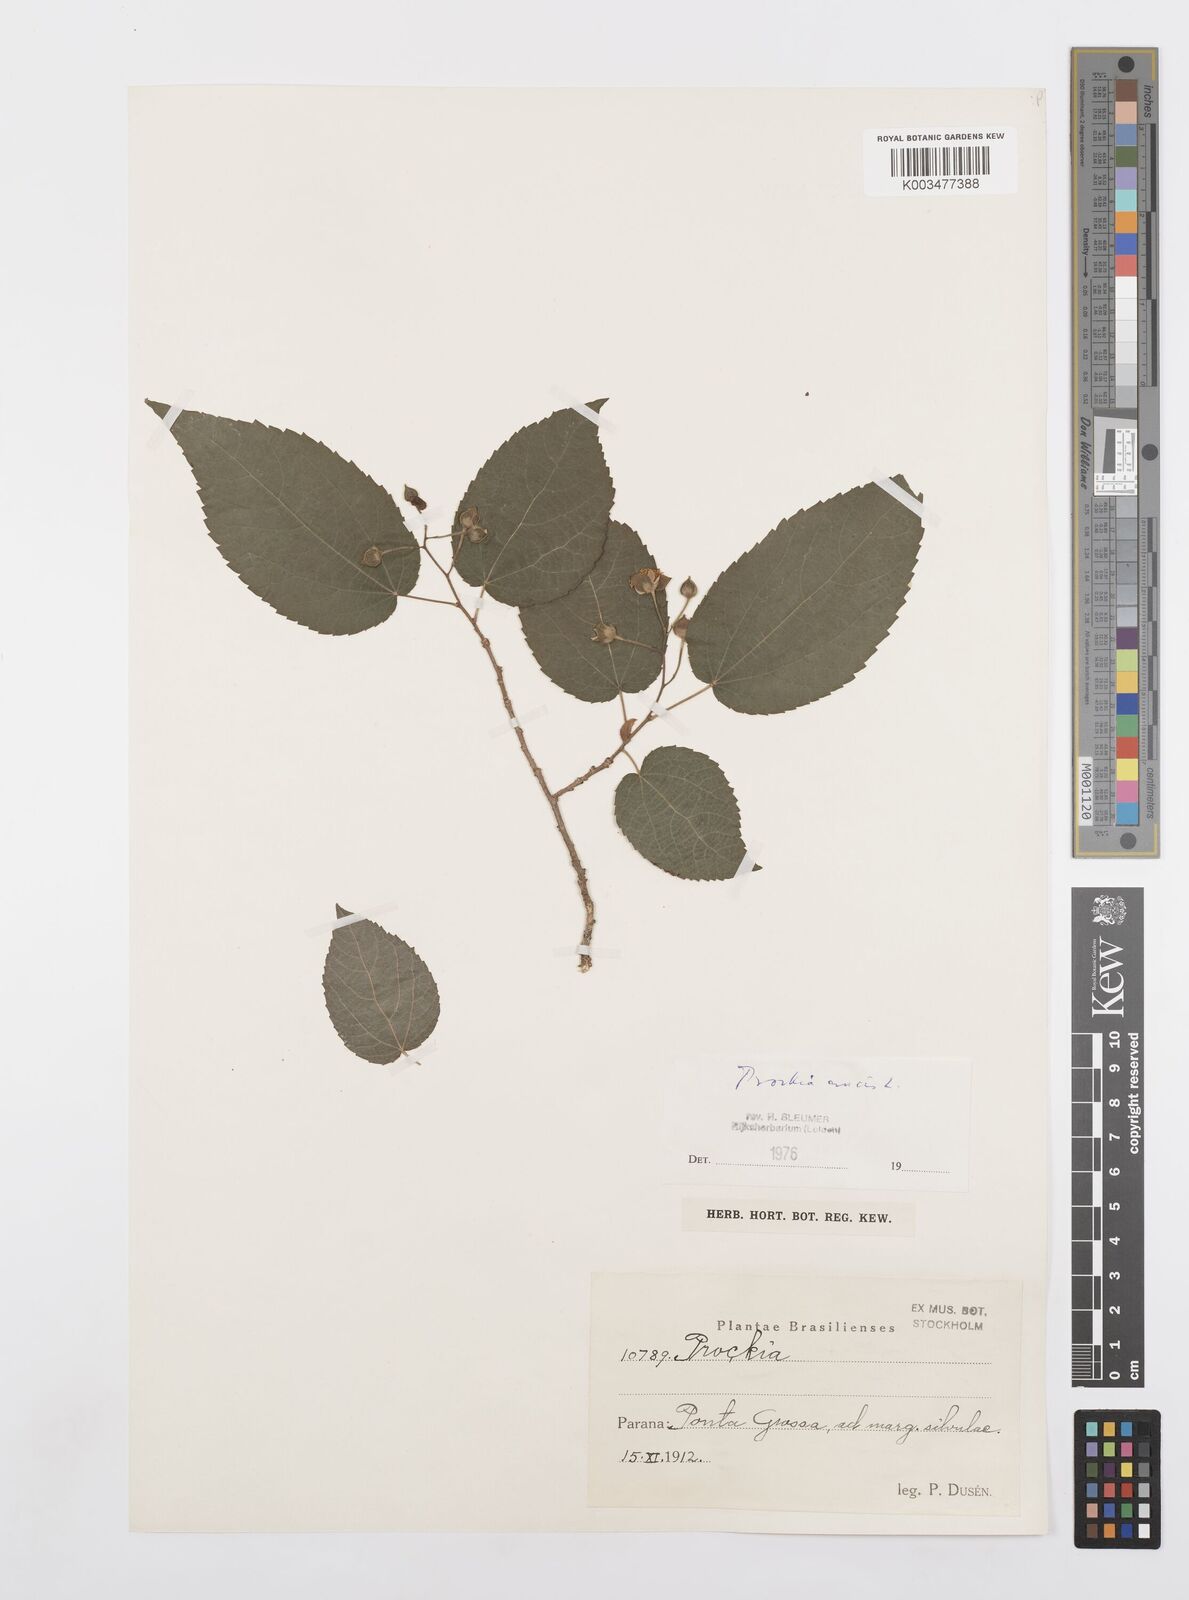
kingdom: Plantae
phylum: Tracheophyta
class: Magnoliopsida
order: Malpighiales
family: Salicaceae
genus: Prockia
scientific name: Prockia crucis
